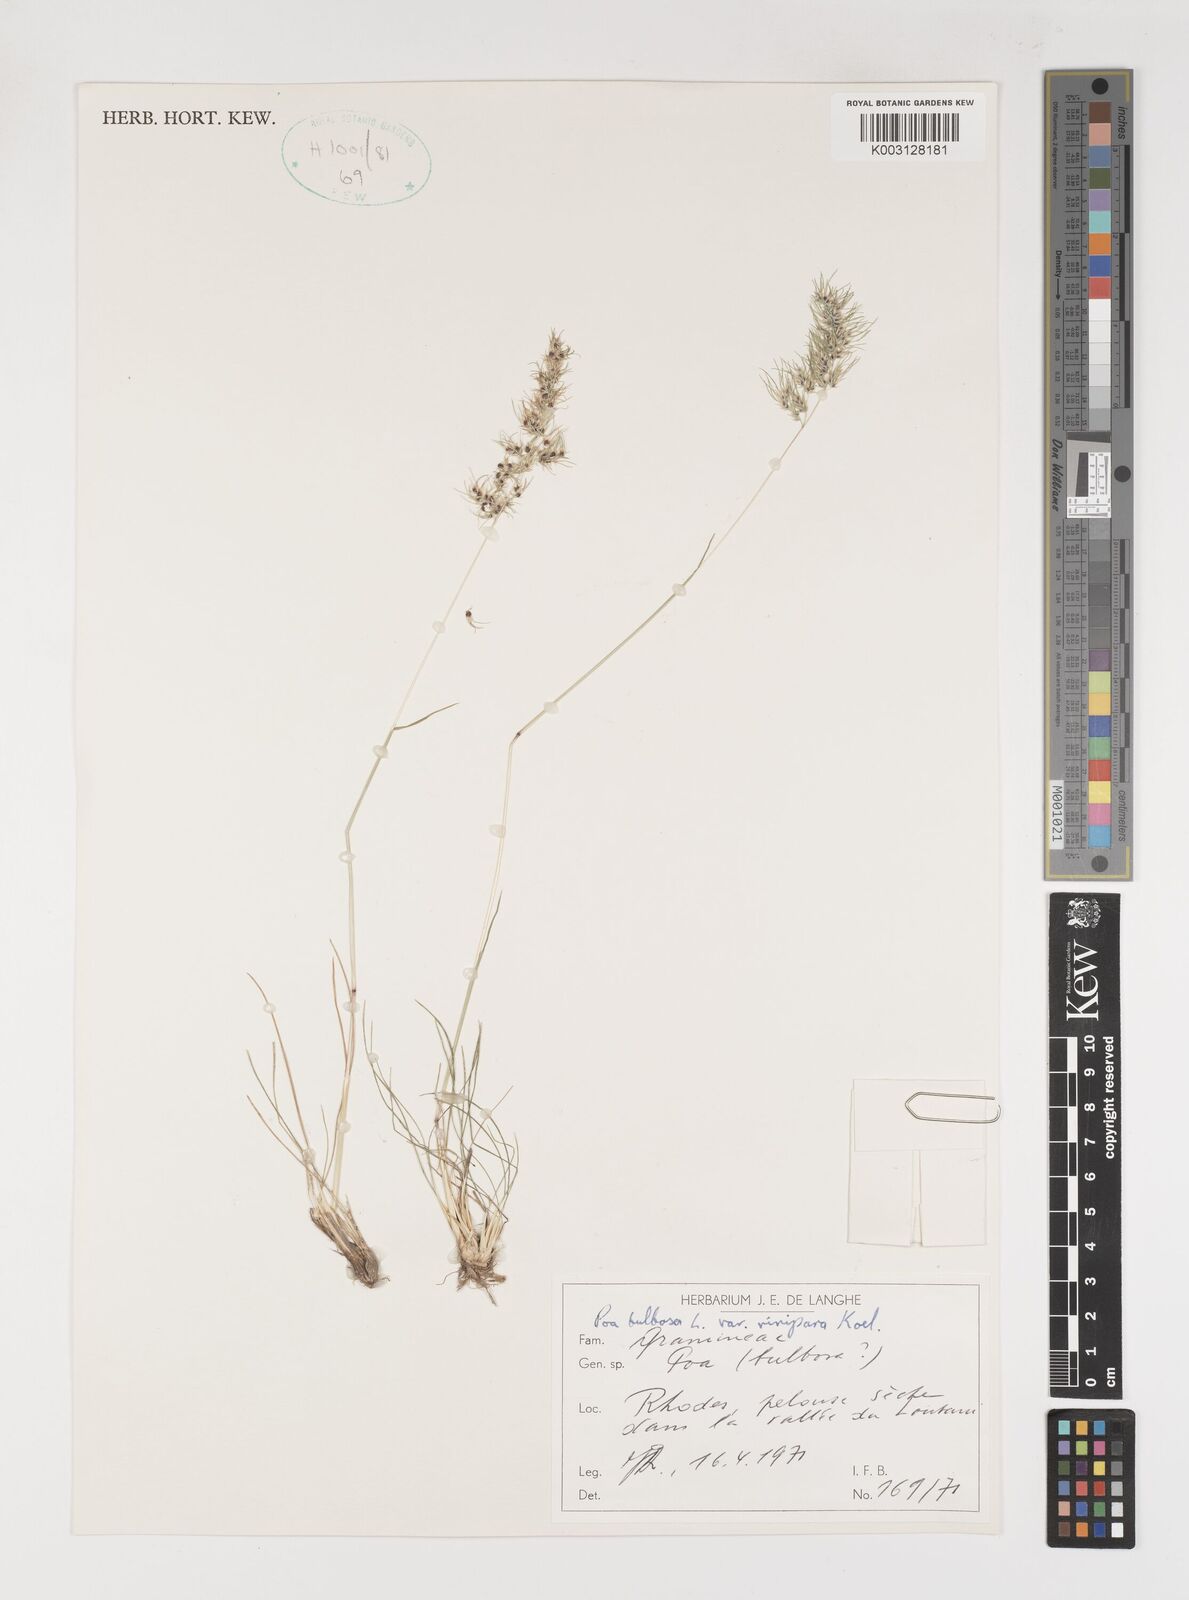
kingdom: Plantae
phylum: Tracheophyta
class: Liliopsida
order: Poales
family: Poaceae
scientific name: Poaceae
